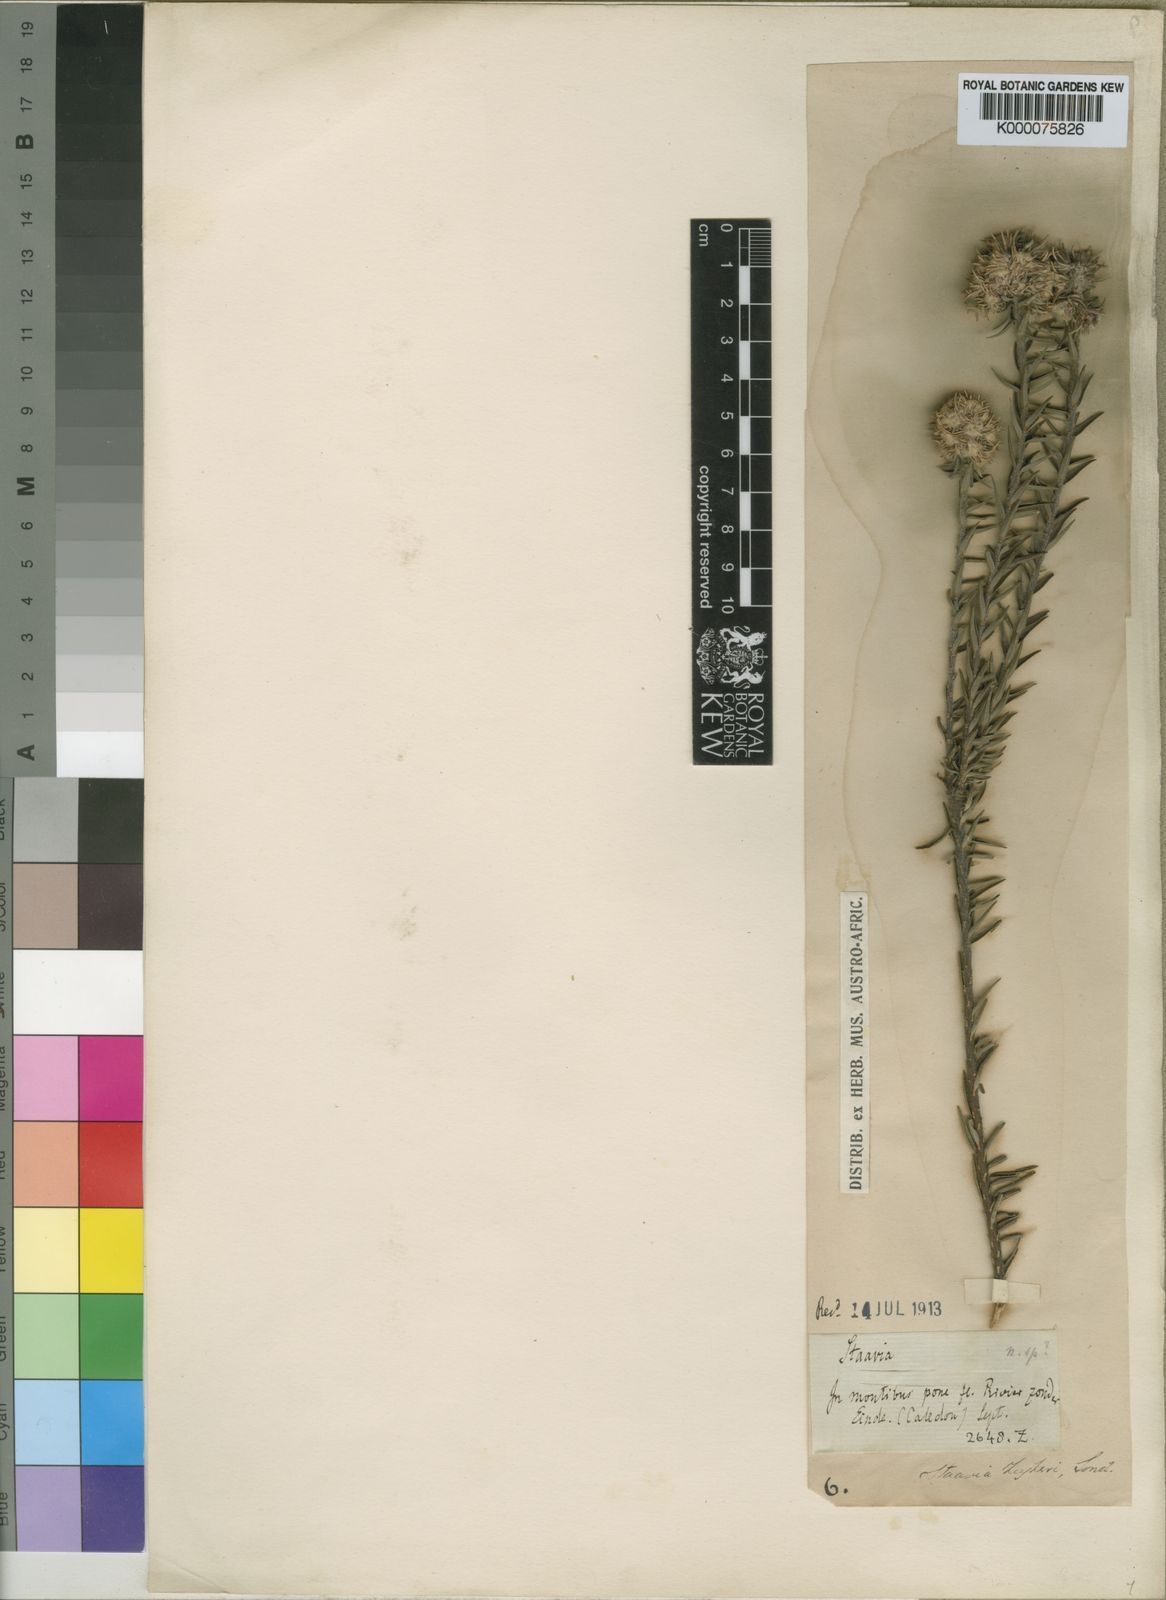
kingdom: Plantae
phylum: Tracheophyta
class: Magnoliopsida
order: Bruniales
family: Bruniaceae
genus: Staavia
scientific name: Staavia zeyheri
